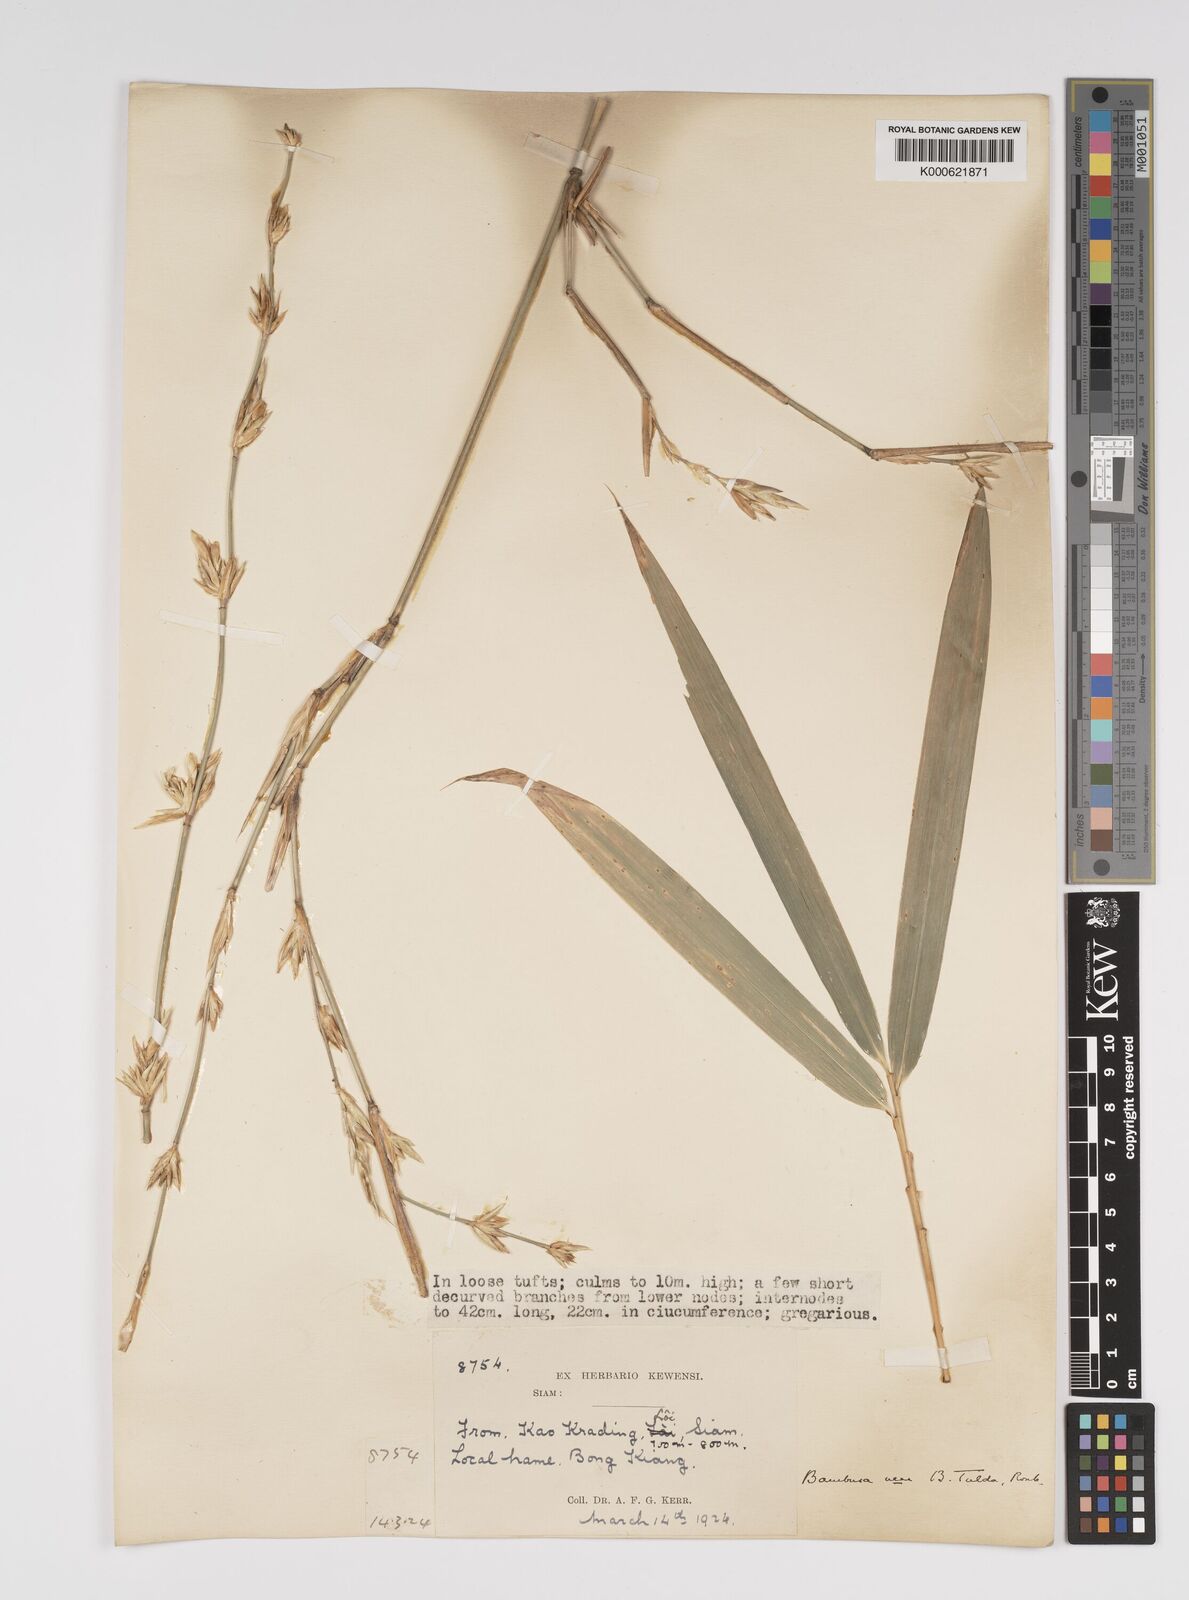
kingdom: Plantae
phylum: Tracheophyta
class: Liliopsida
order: Poales
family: Poaceae
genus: Bambusa
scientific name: Bambusa tulda
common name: Bengal bamboo
